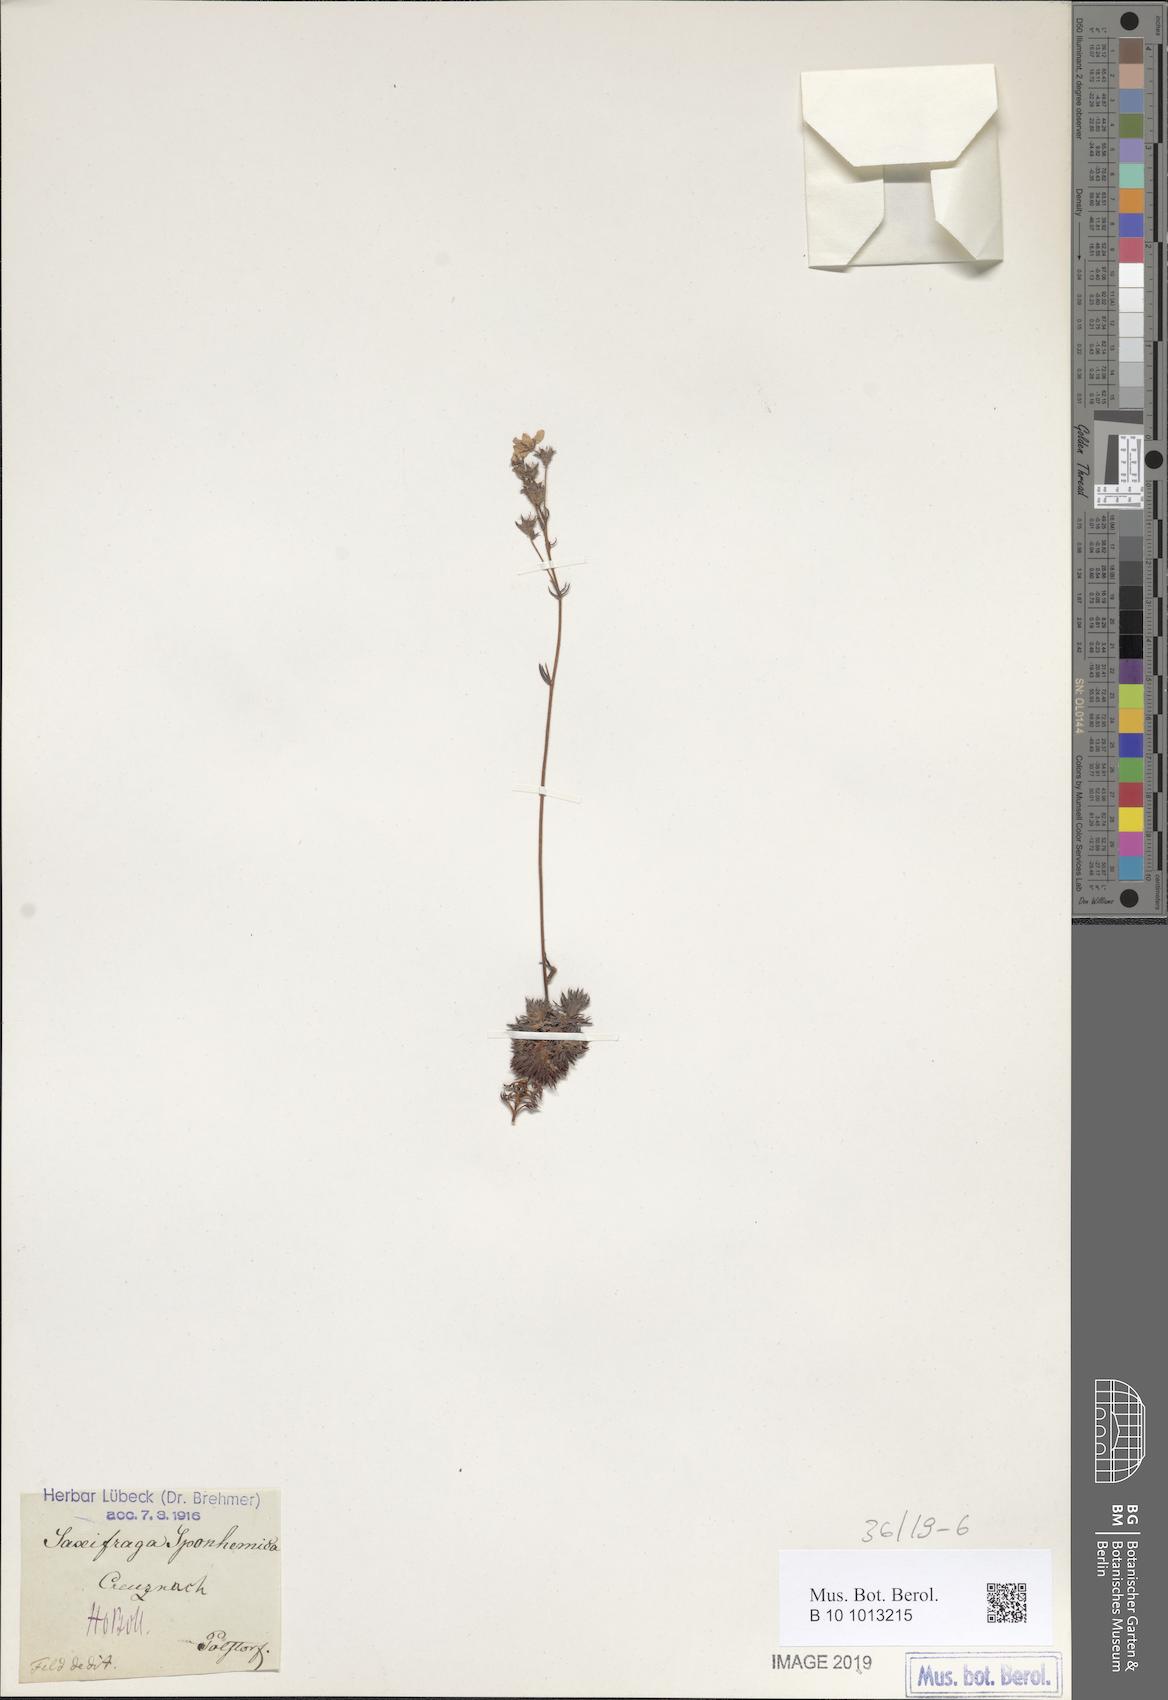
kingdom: Plantae
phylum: Tracheophyta
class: Magnoliopsida
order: Saxifragales
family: Saxifragaceae
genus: Saxifraga
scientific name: Saxifraga rosacea
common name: Irish saxifrage
